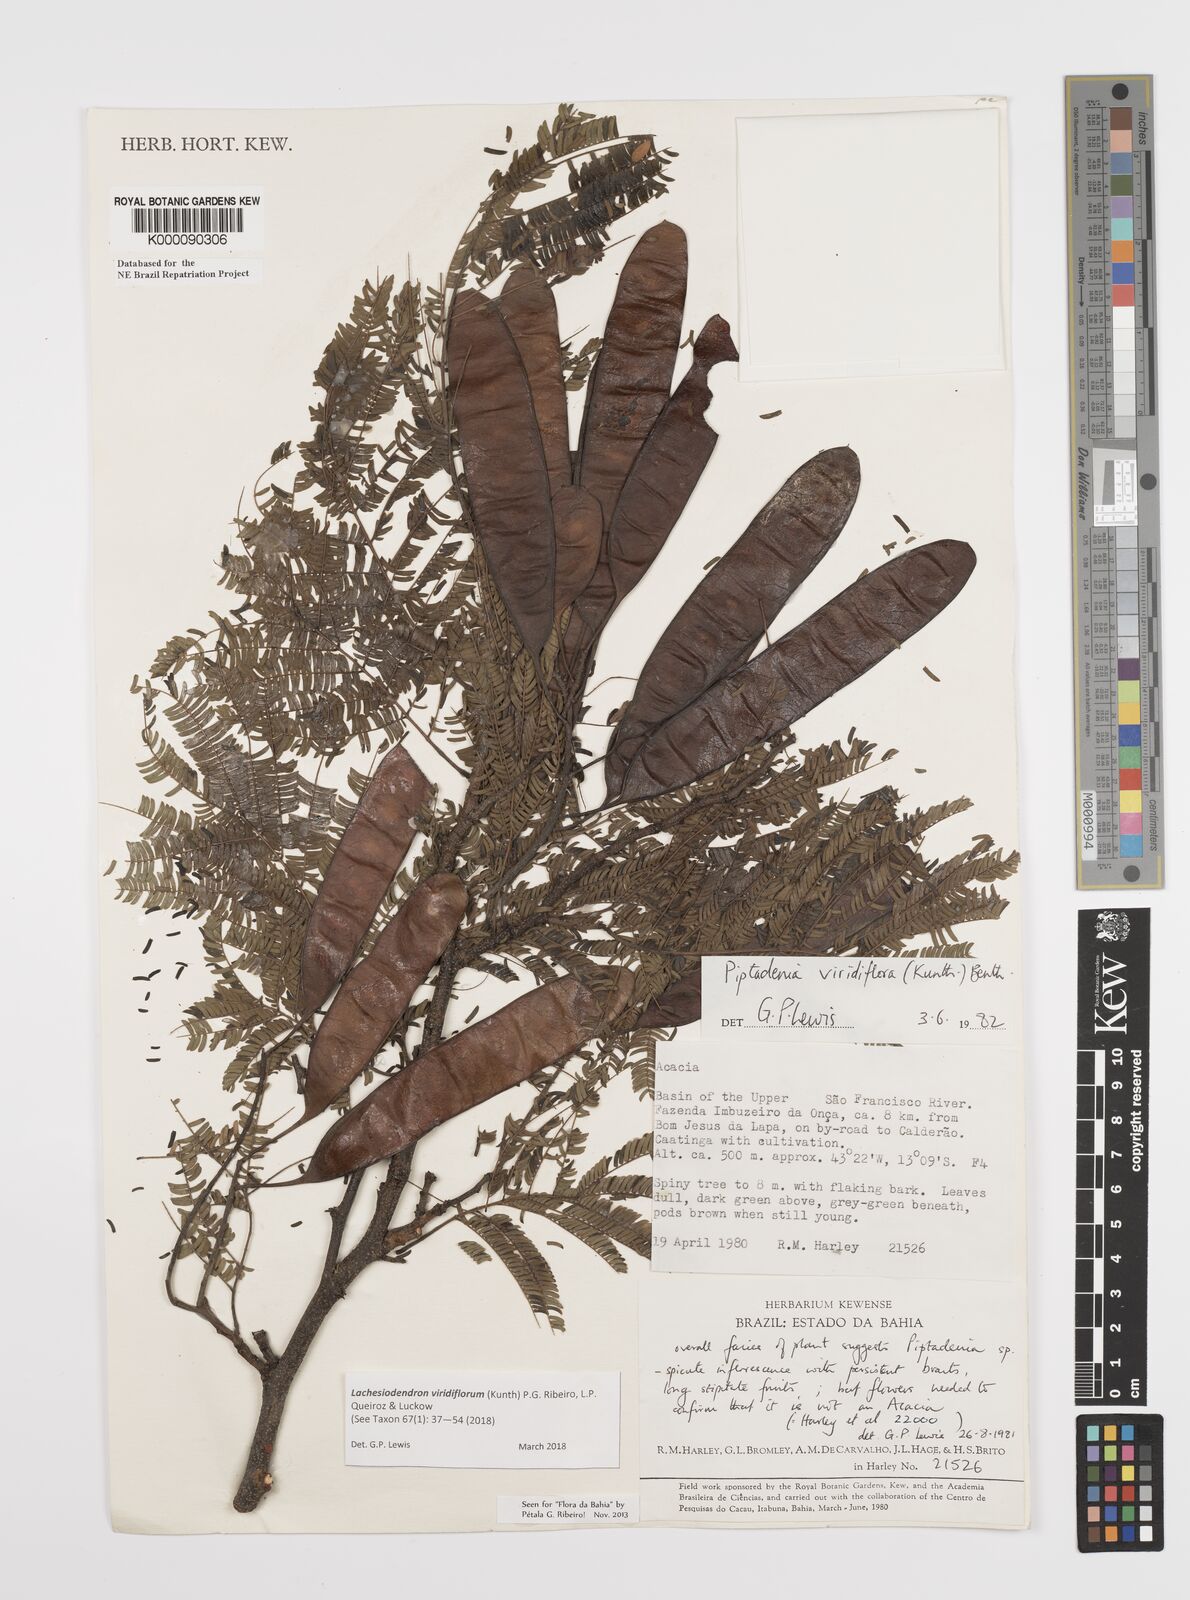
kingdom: Plantae
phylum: Tracheophyta
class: Magnoliopsida
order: Fabales
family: Fabaceae
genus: Lachesiodendron
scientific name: Lachesiodendron viridiflorum
